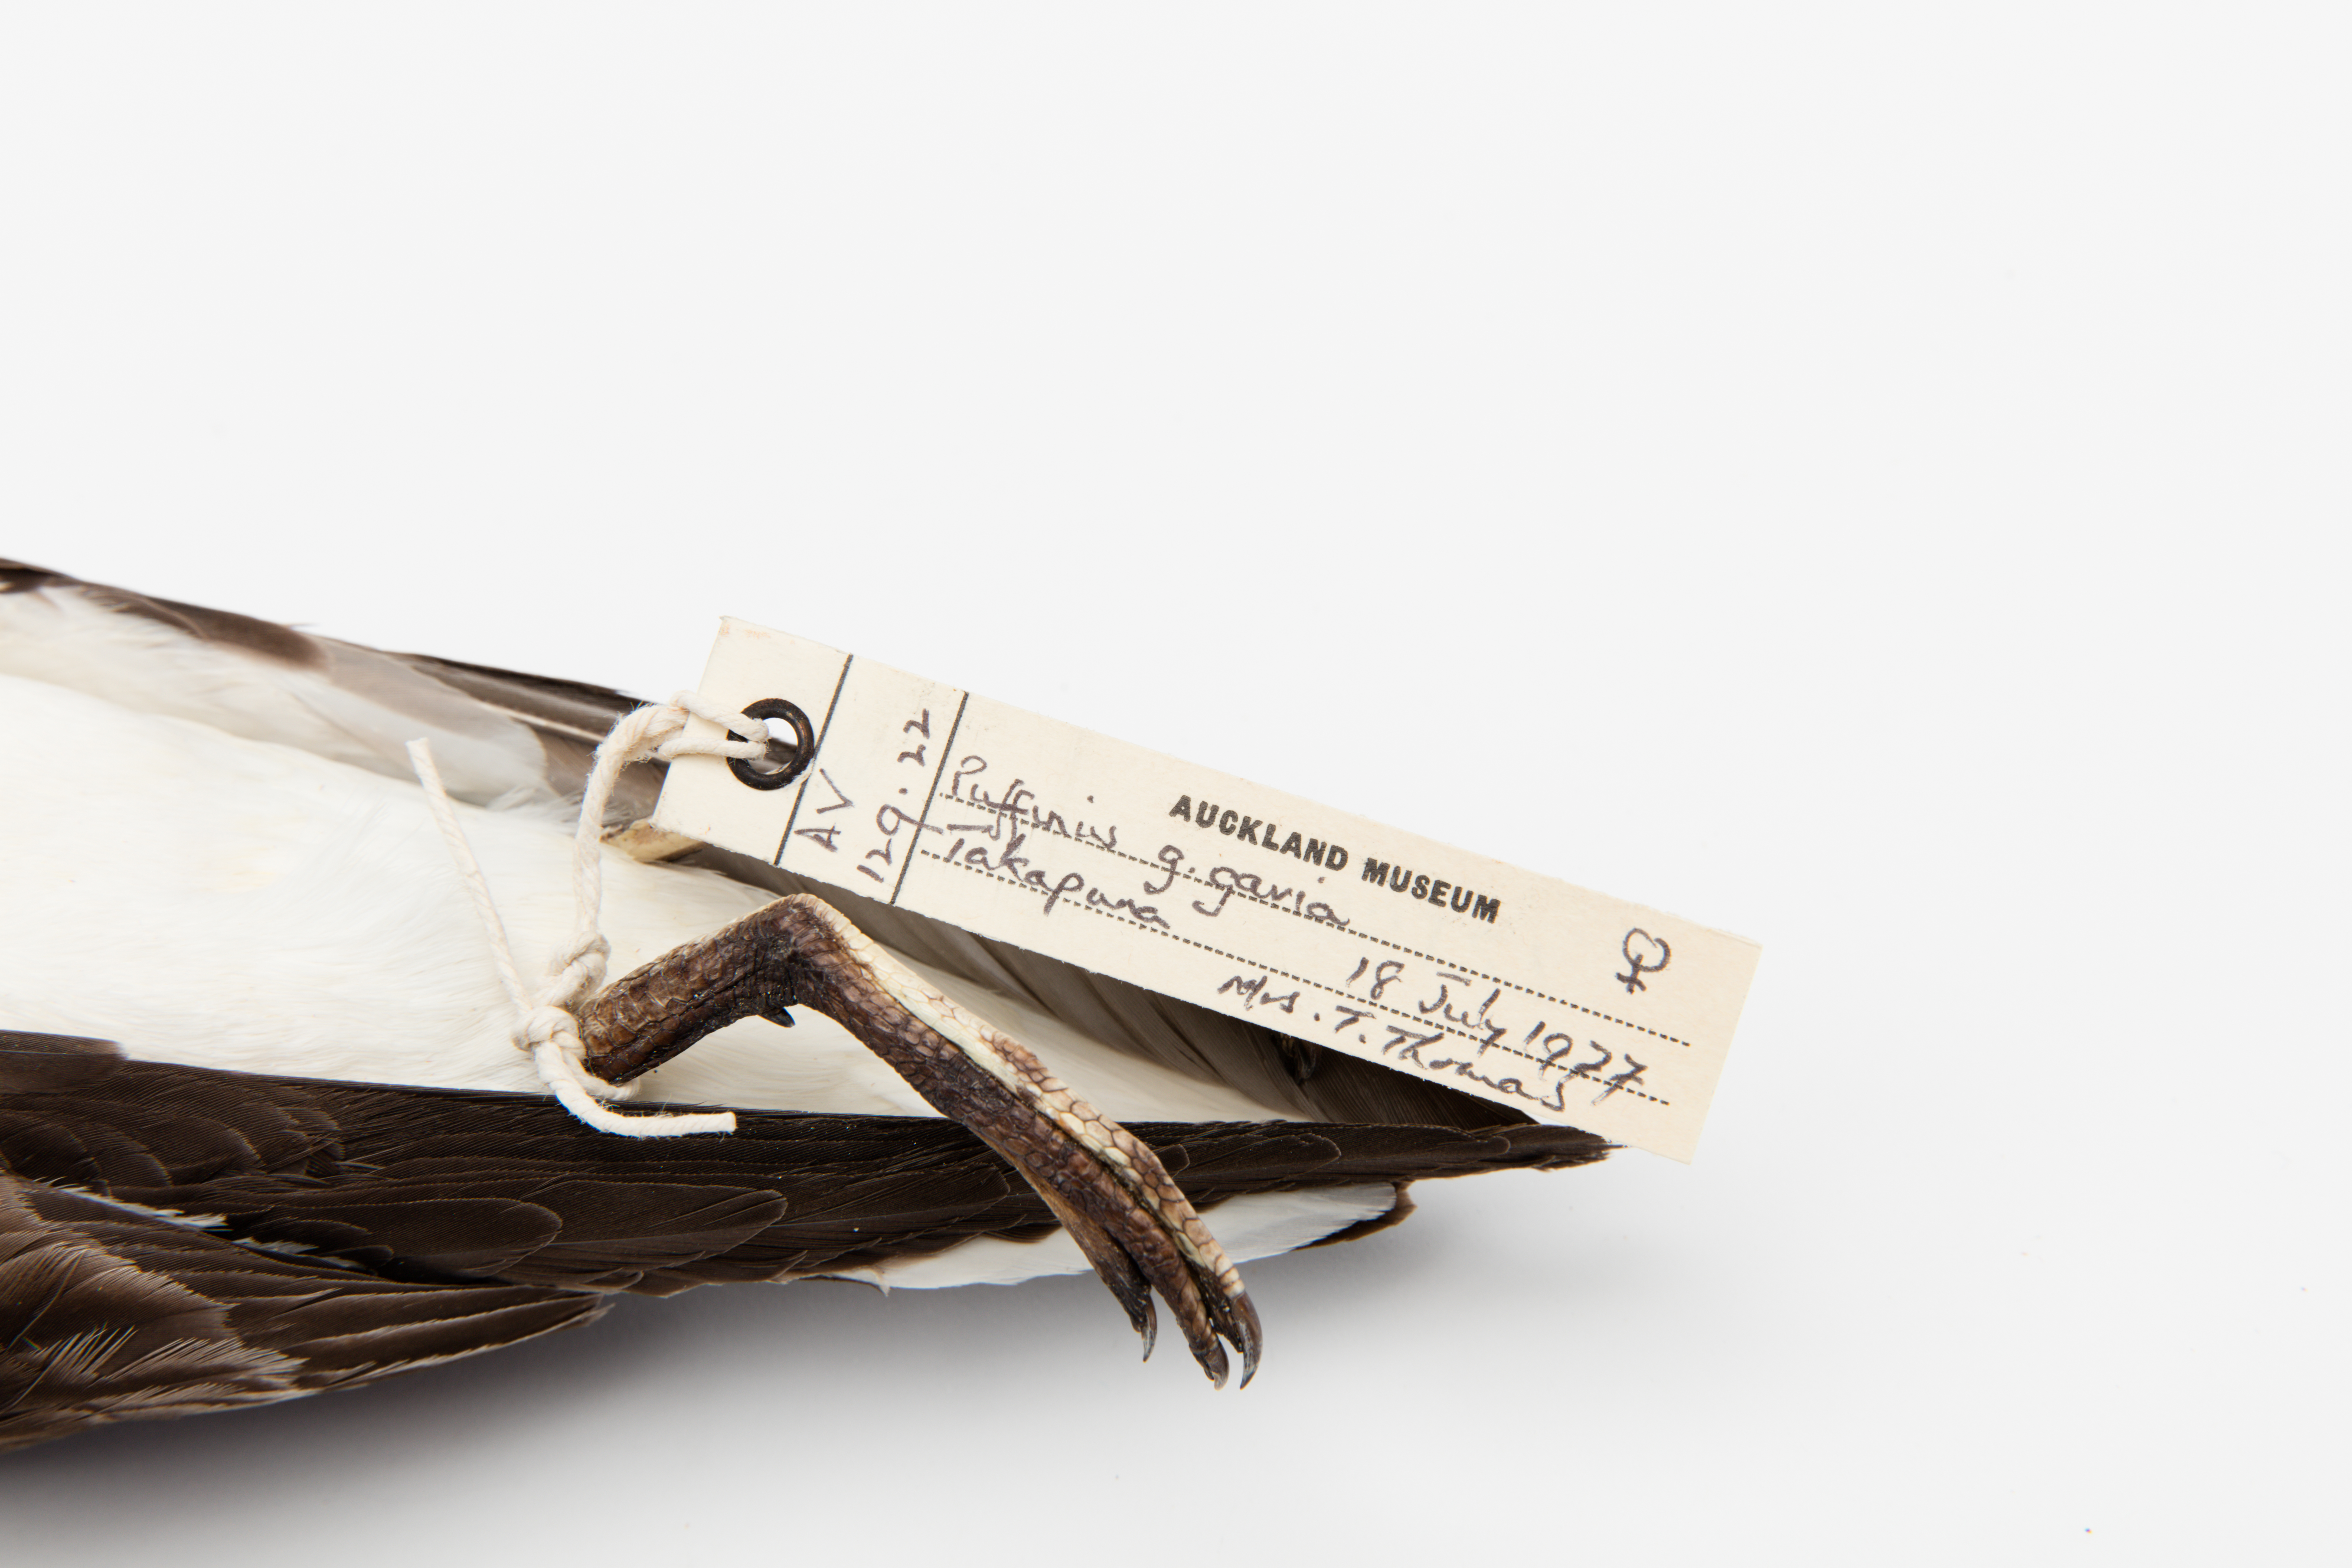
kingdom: Animalia
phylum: Chordata
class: Aves
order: Procellariiformes
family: Procellariidae
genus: Ardenna
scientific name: Ardenna
